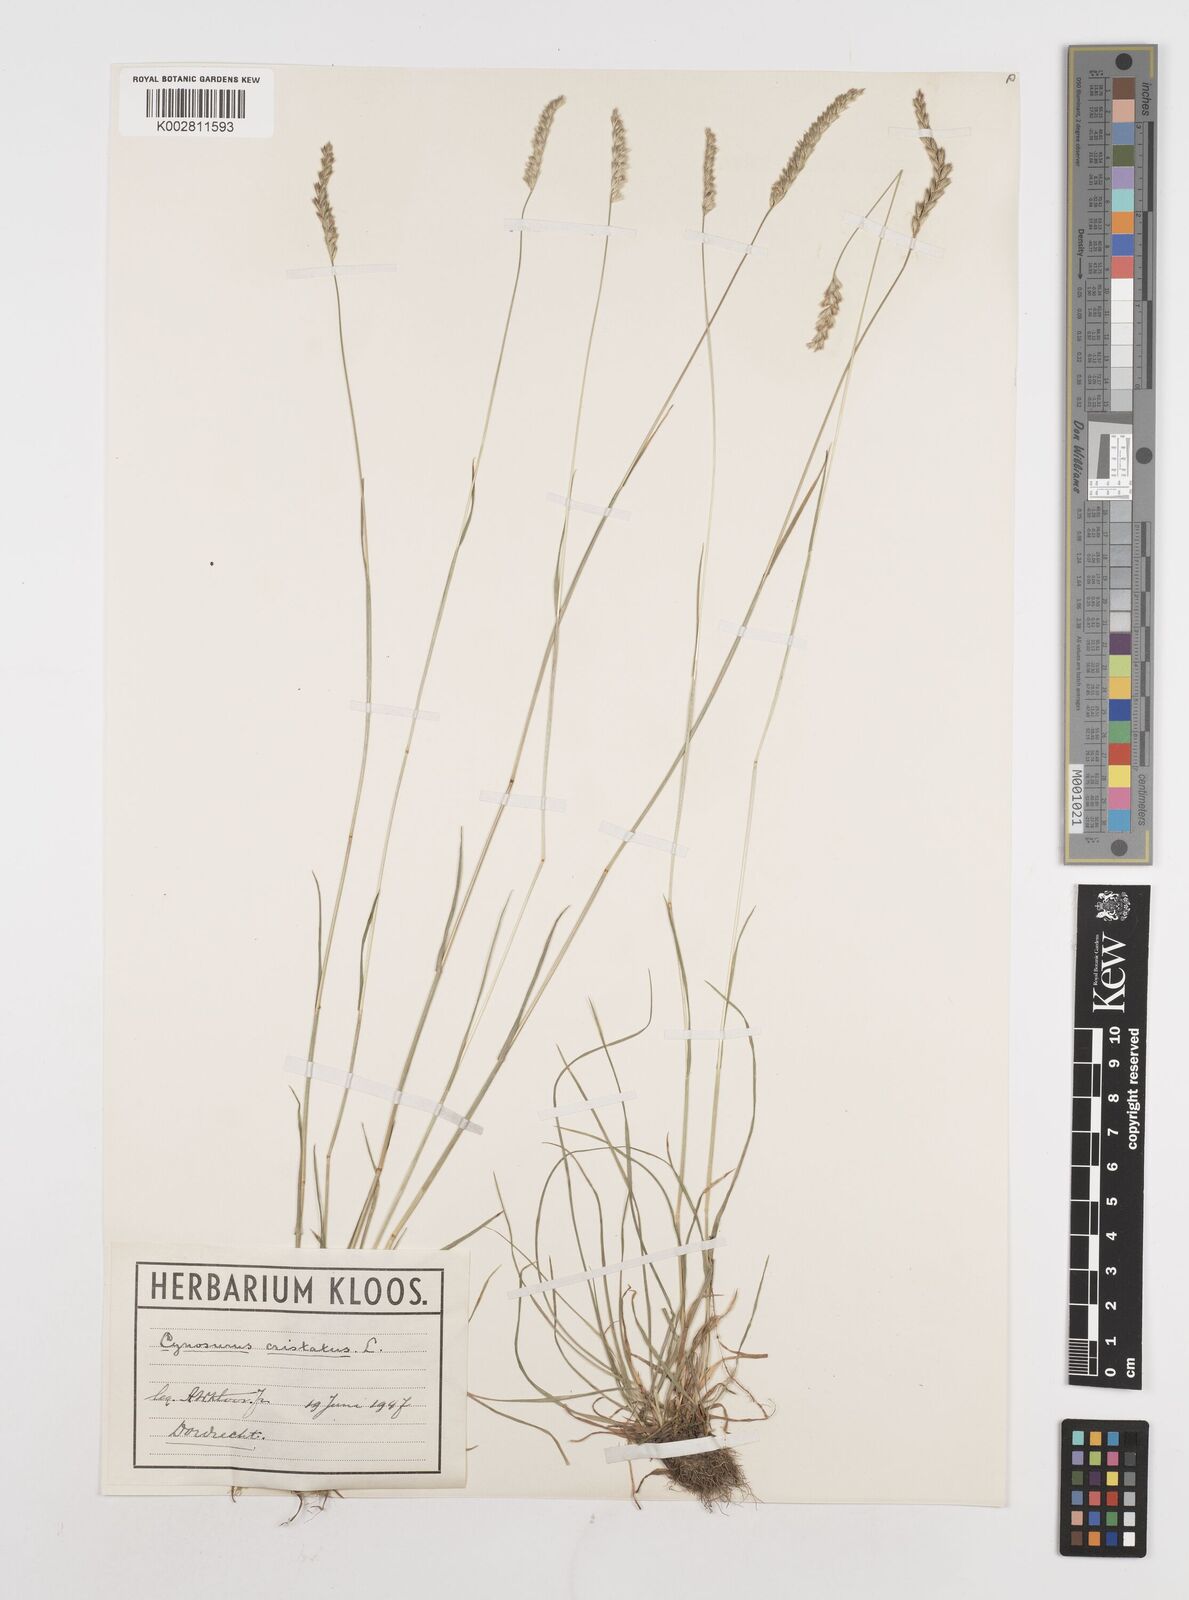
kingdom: Plantae
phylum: Tracheophyta
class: Liliopsida
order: Poales
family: Poaceae
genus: Cynosurus
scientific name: Cynosurus cristatus
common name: Crested dog's-tail
